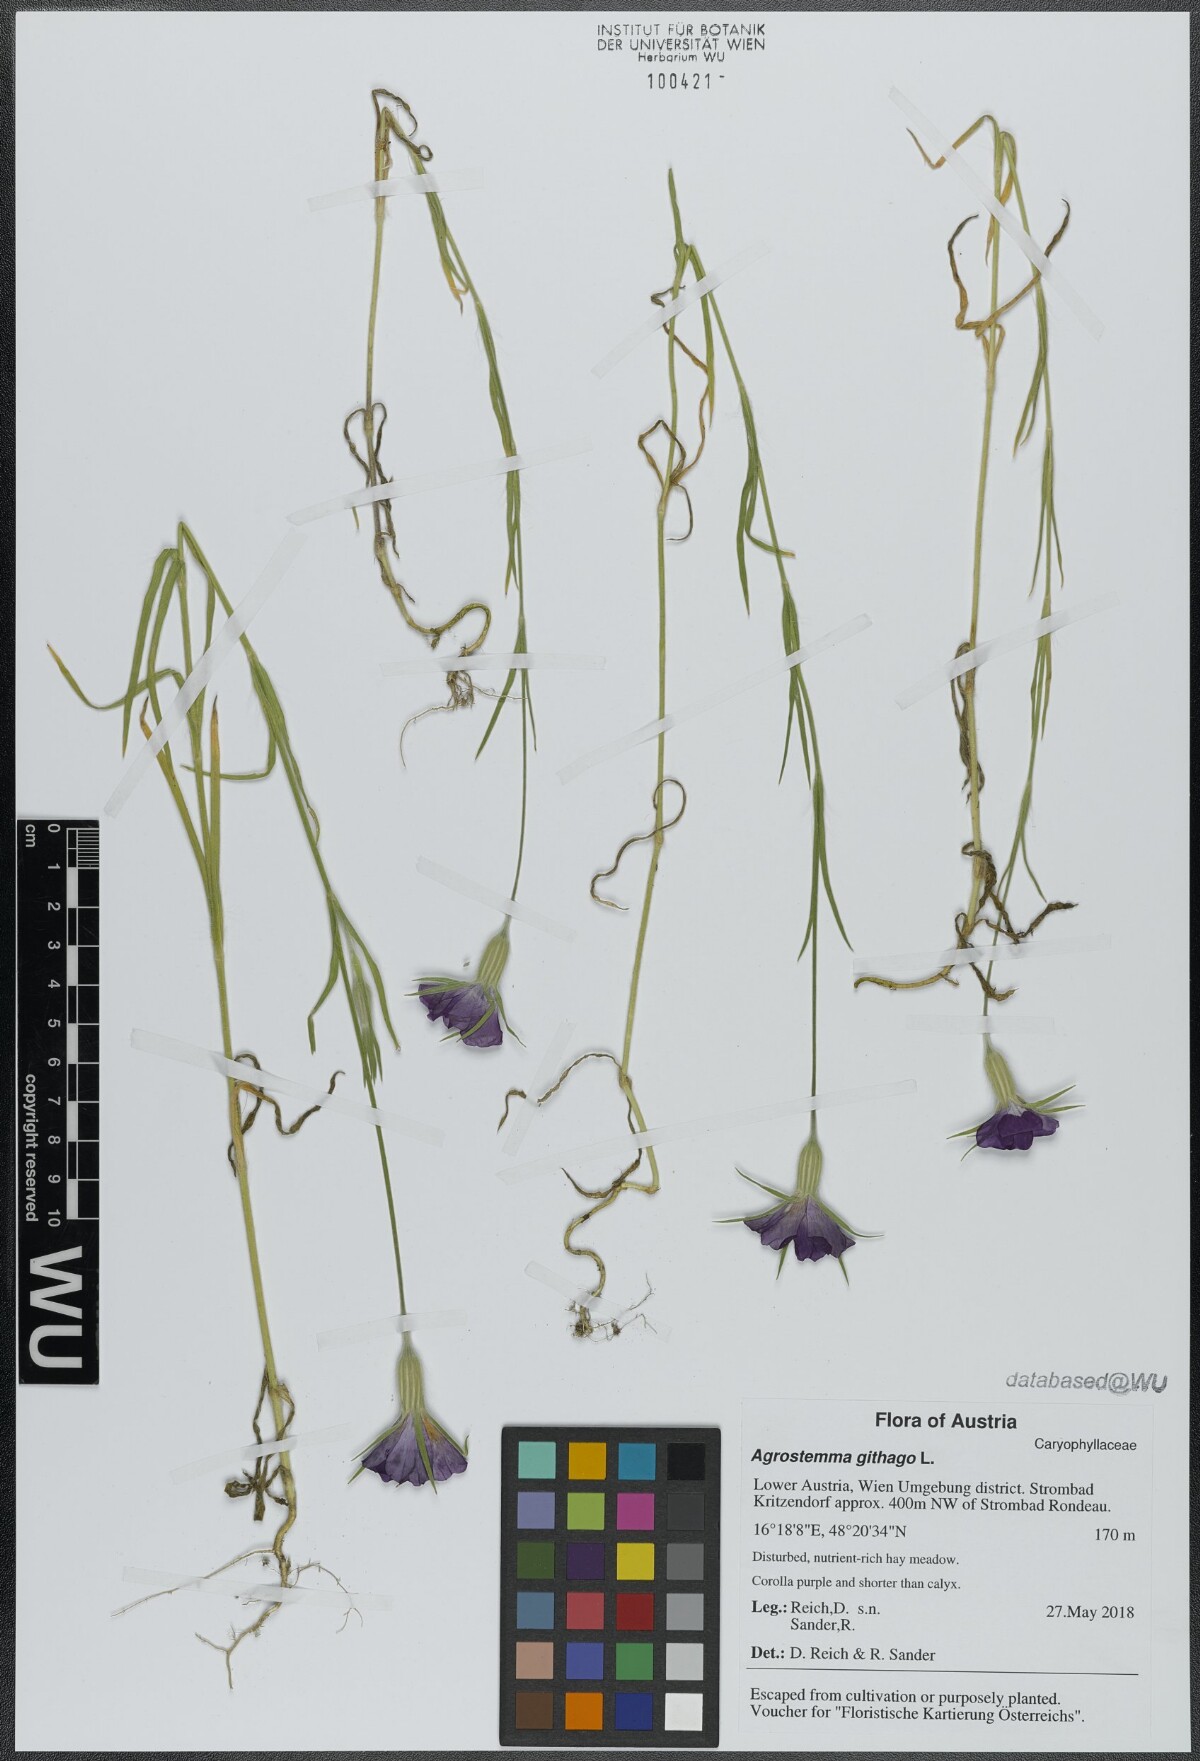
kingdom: Plantae
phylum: Tracheophyta
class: Magnoliopsida
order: Caryophyllales
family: Caryophyllaceae
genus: Agrostemma
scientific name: Agrostemma githago
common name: Common corncockle
